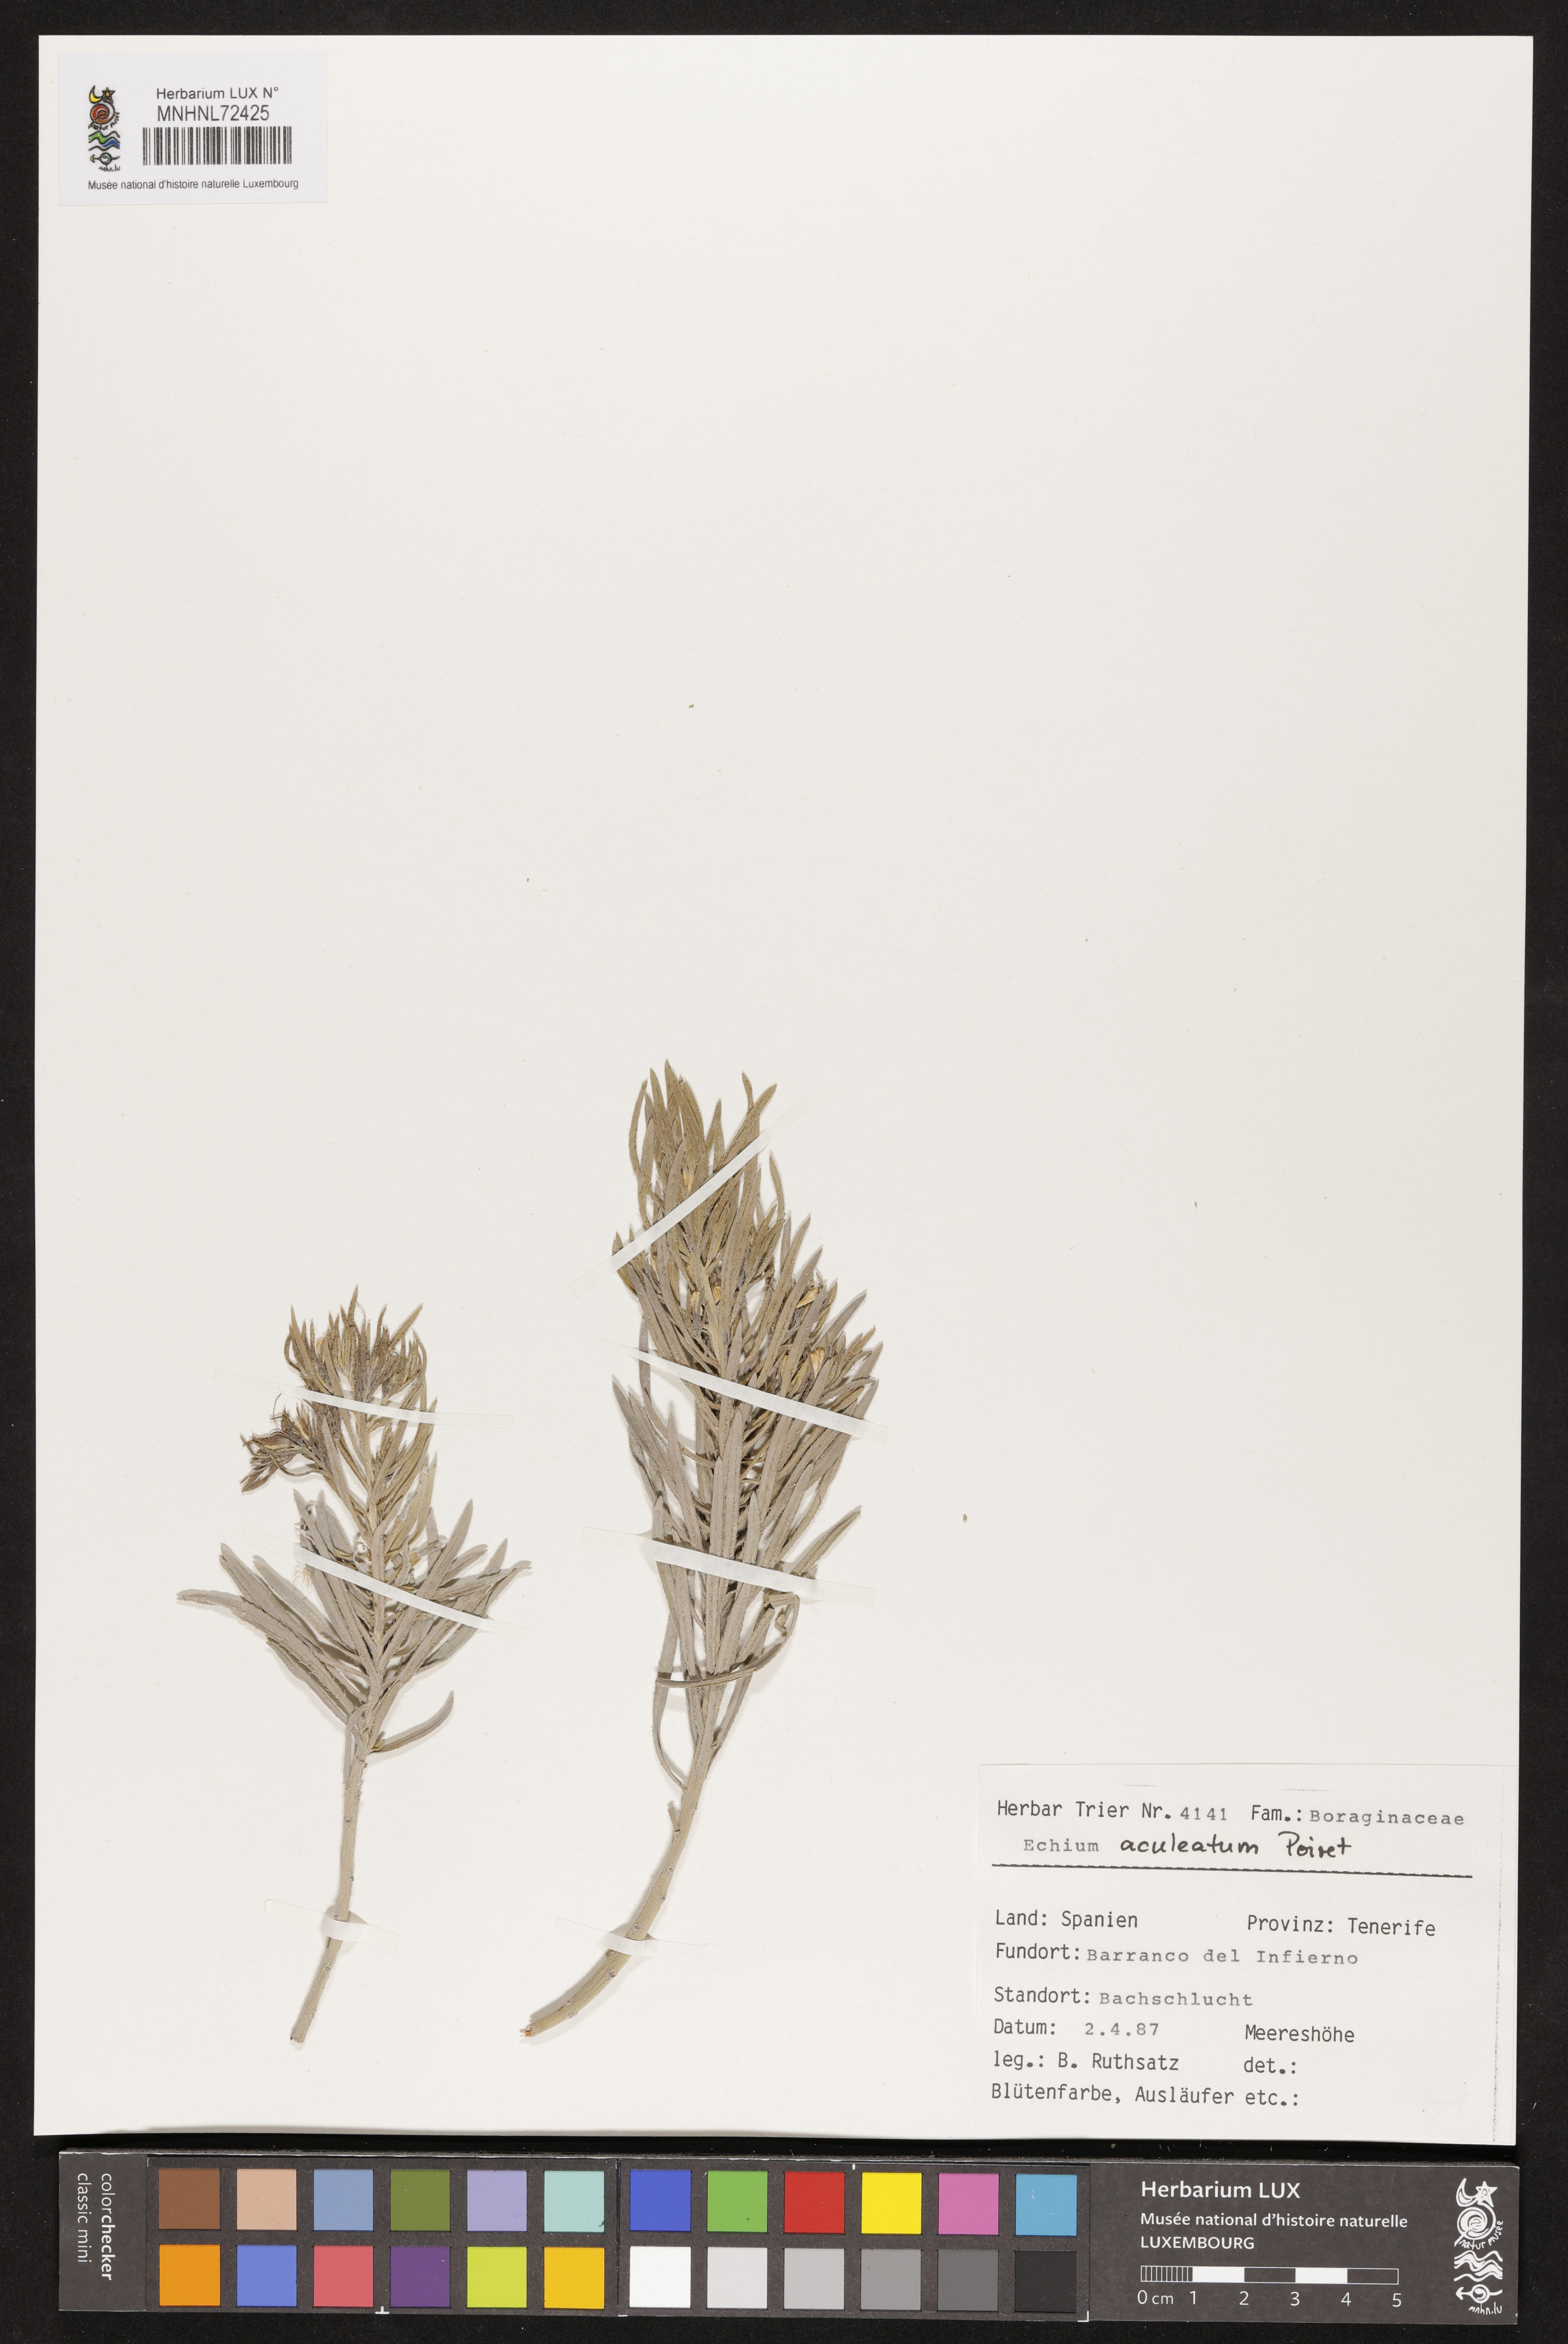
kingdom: Plantae
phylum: Tracheophyta
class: Magnoliopsida
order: Boraginales
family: Boraginaceae
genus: Echium
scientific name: Echium aculeatum
